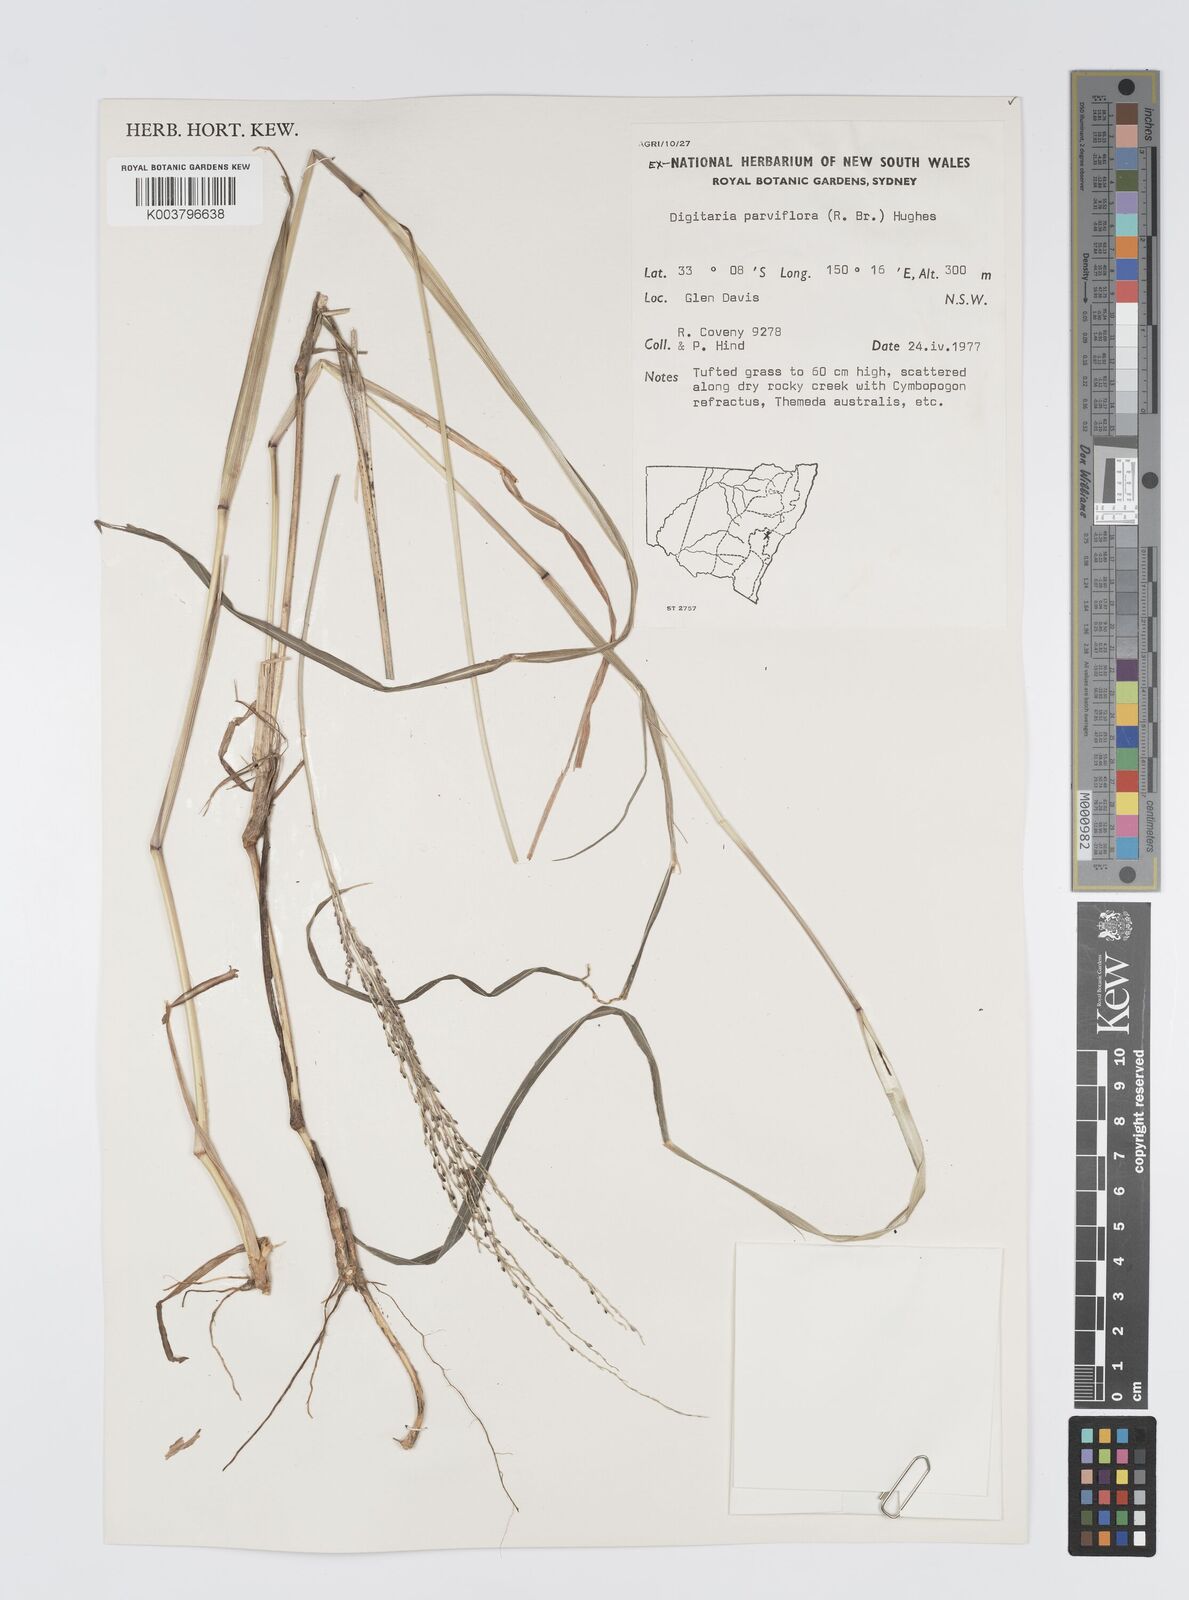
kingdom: Plantae
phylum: Tracheophyta
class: Liliopsida
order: Poales
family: Poaceae
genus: Digitaria
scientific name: Digitaria parviflora
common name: Small-flower finger grass
